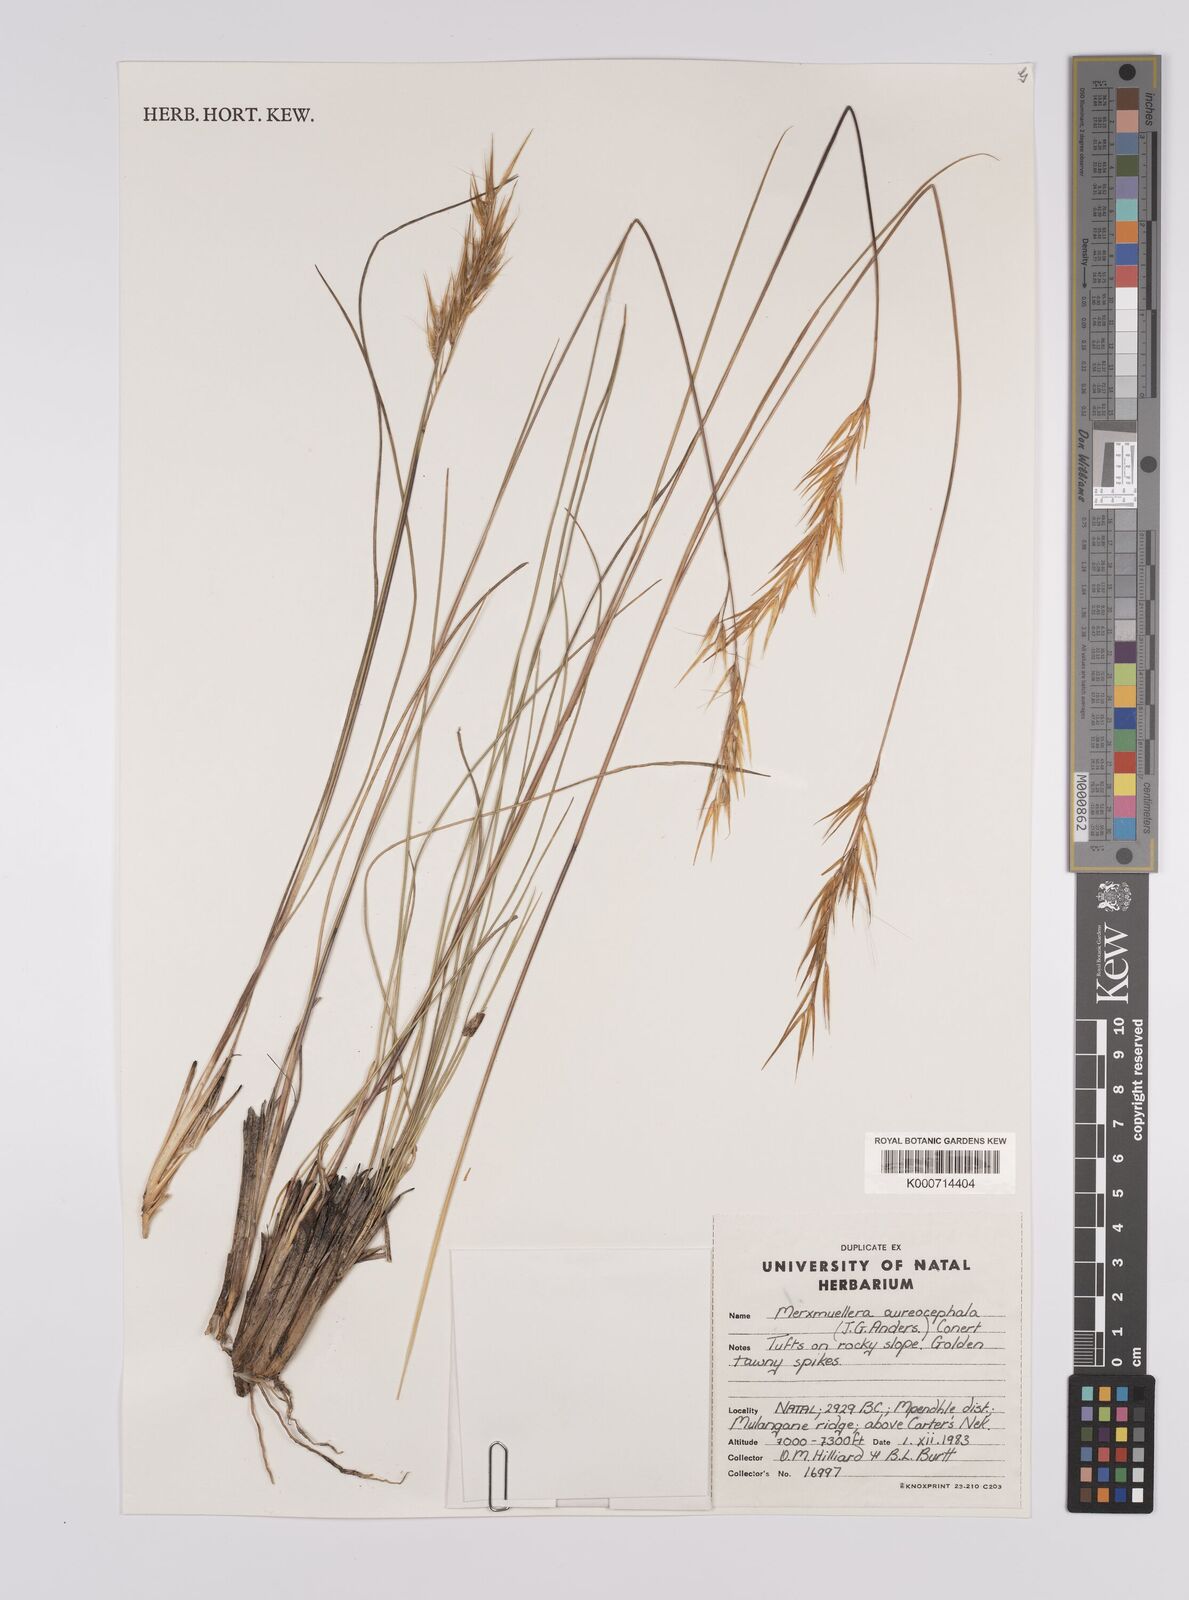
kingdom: Plantae
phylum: Tracheophyta
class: Liliopsida
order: Poales
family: Poaceae
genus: Rytidosperma
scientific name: Rytidosperma
